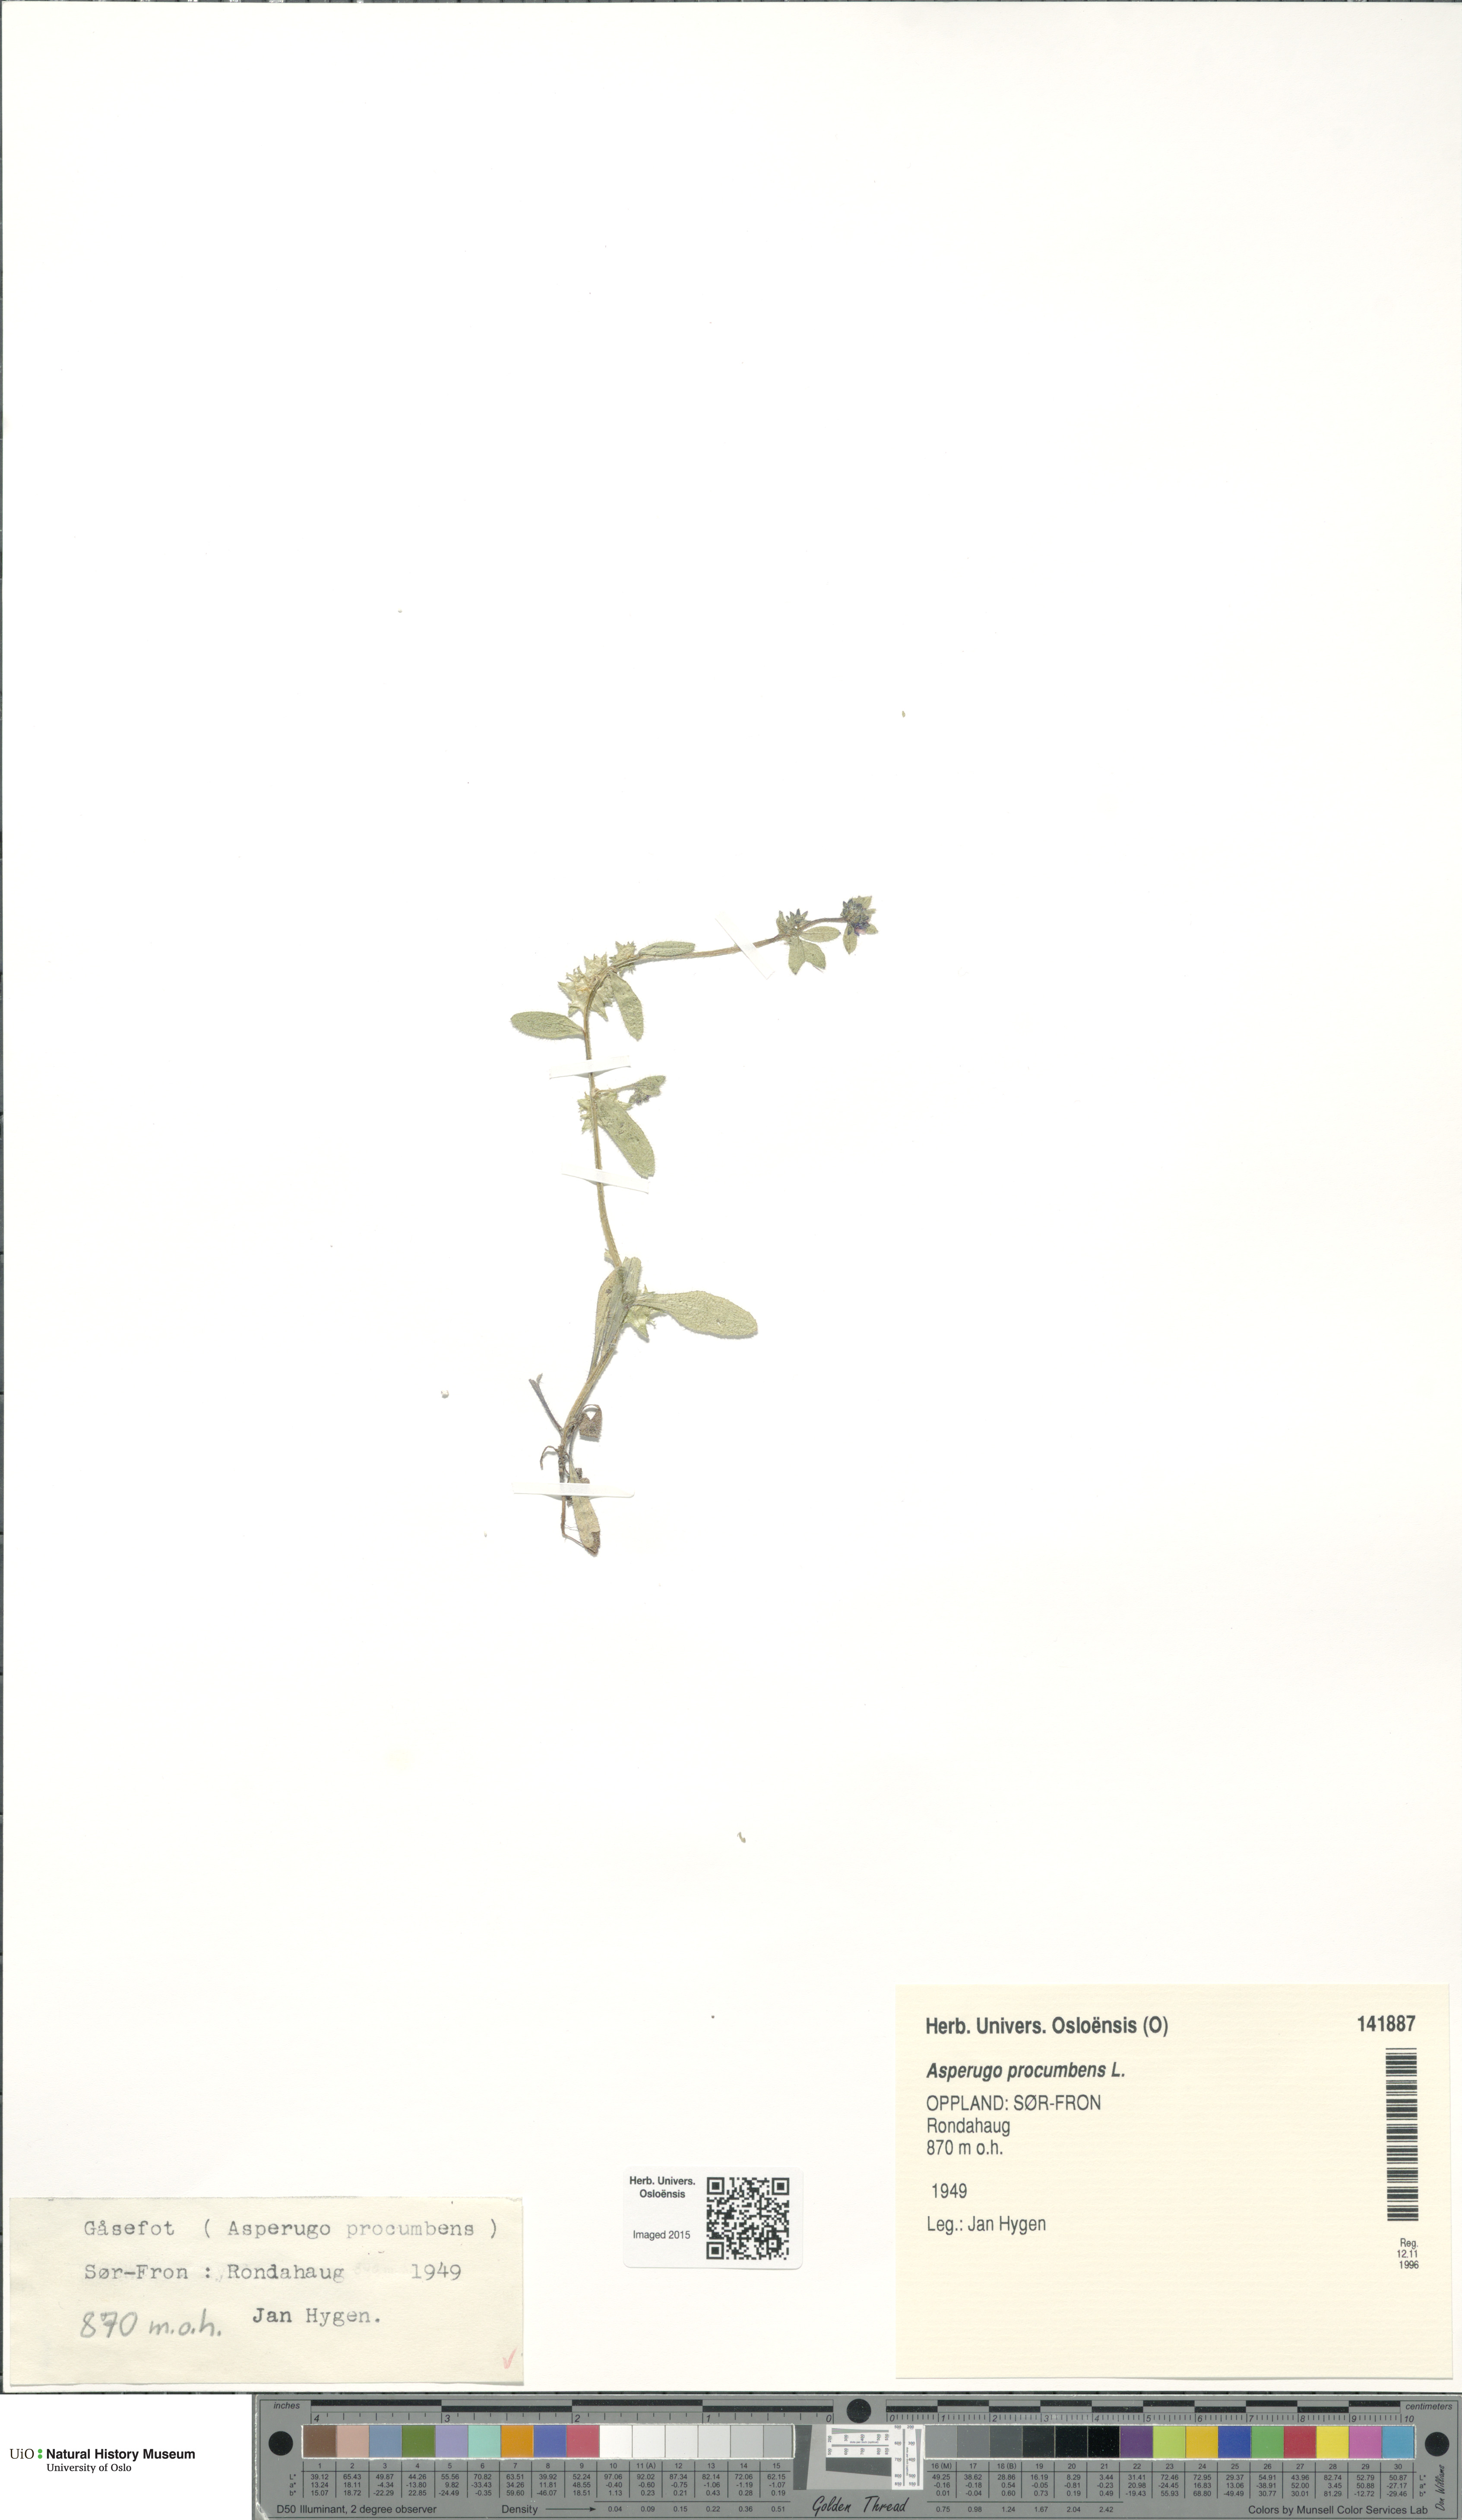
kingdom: Plantae
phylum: Tracheophyta
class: Magnoliopsida
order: Boraginales
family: Boraginaceae
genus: Asperugo
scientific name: Asperugo procumbens
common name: Madwort
